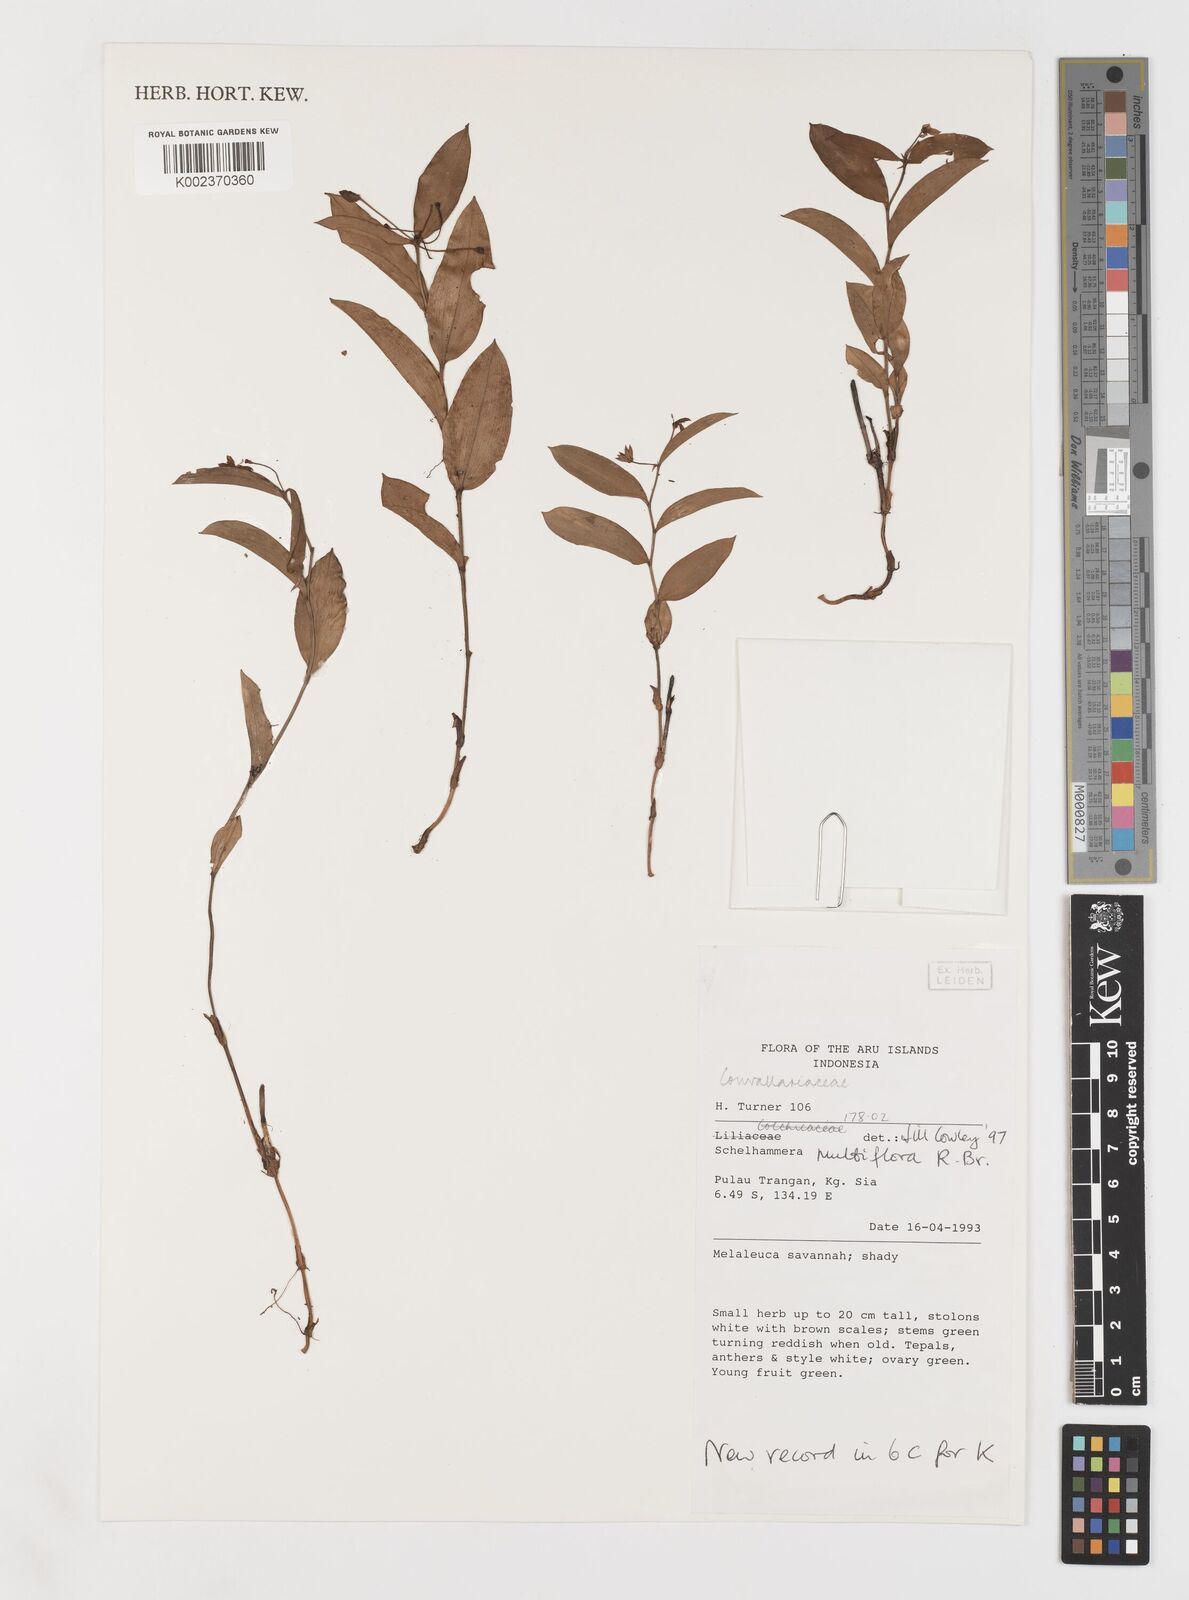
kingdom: Plantae
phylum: Tracheophyta
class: Liliopsida
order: Liliales
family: Colchicaceae
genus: Schelhammera
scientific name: Schelhammera multiflora
